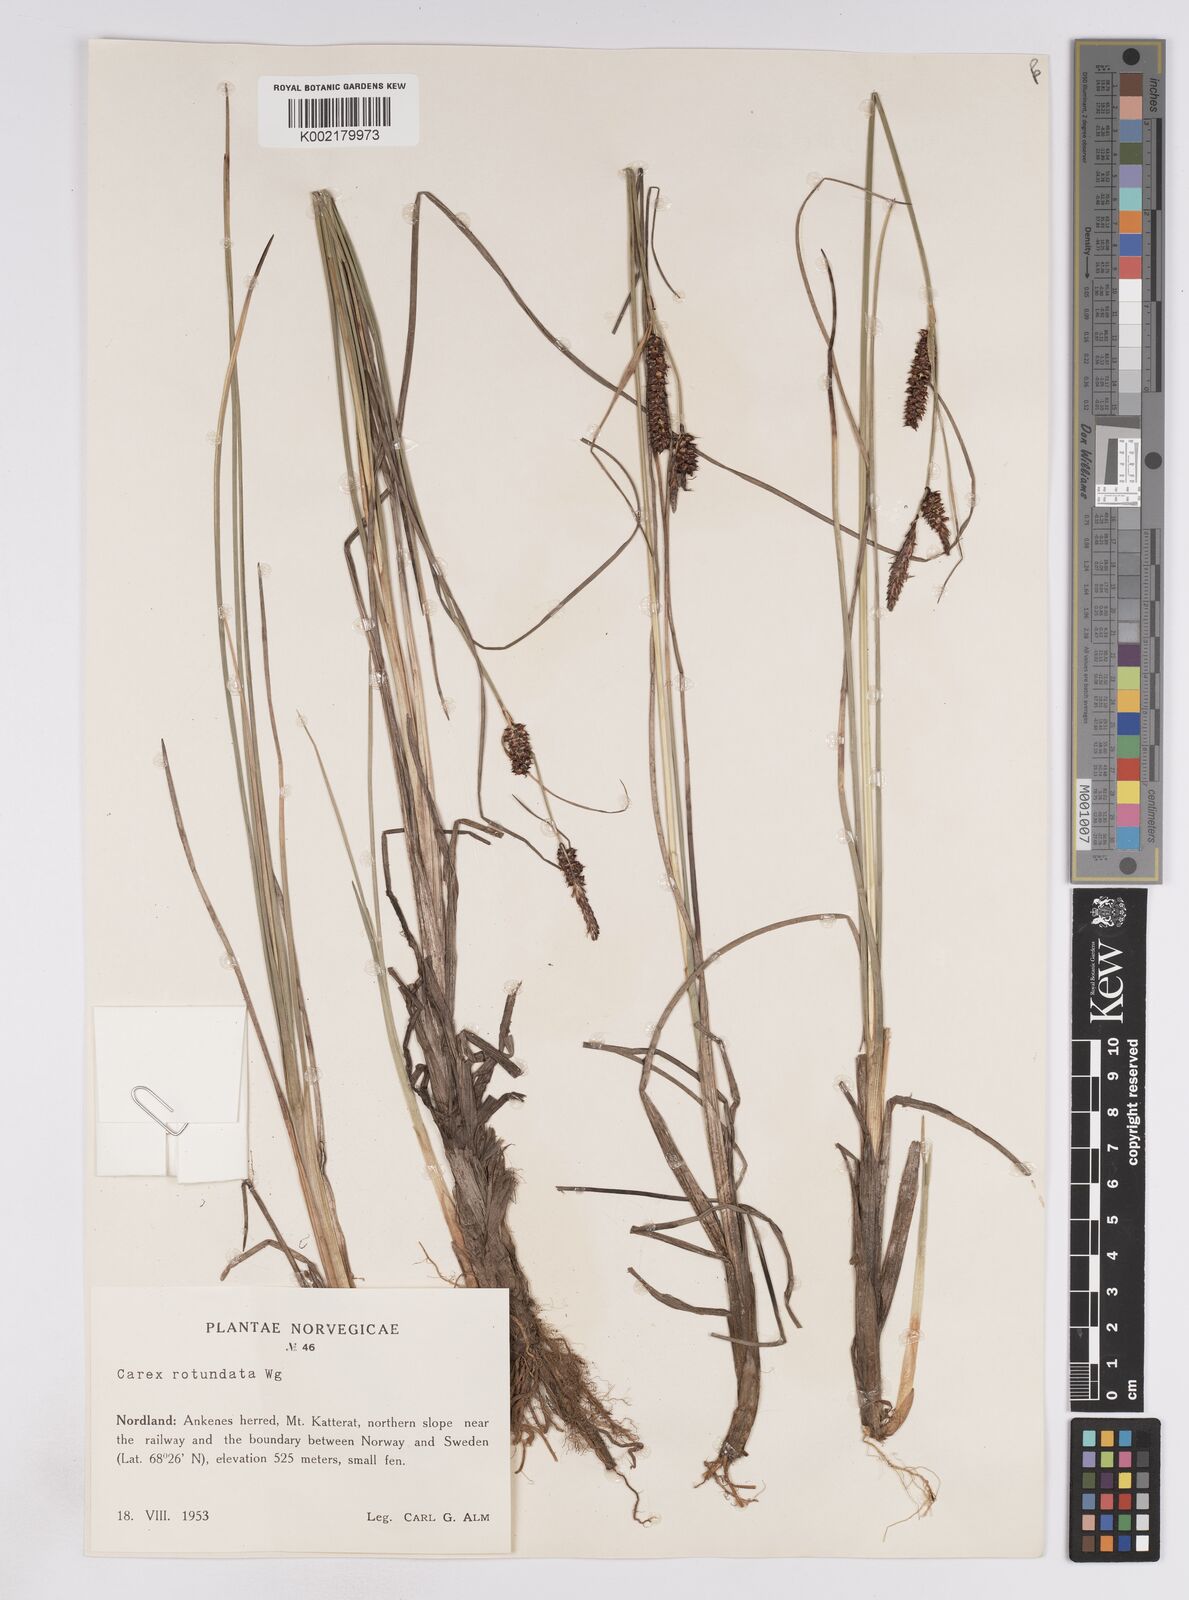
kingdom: Plantae
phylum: Tracheophyta
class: Liliopsida
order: Poales
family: Cyperaceae
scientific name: Cyperaceae
